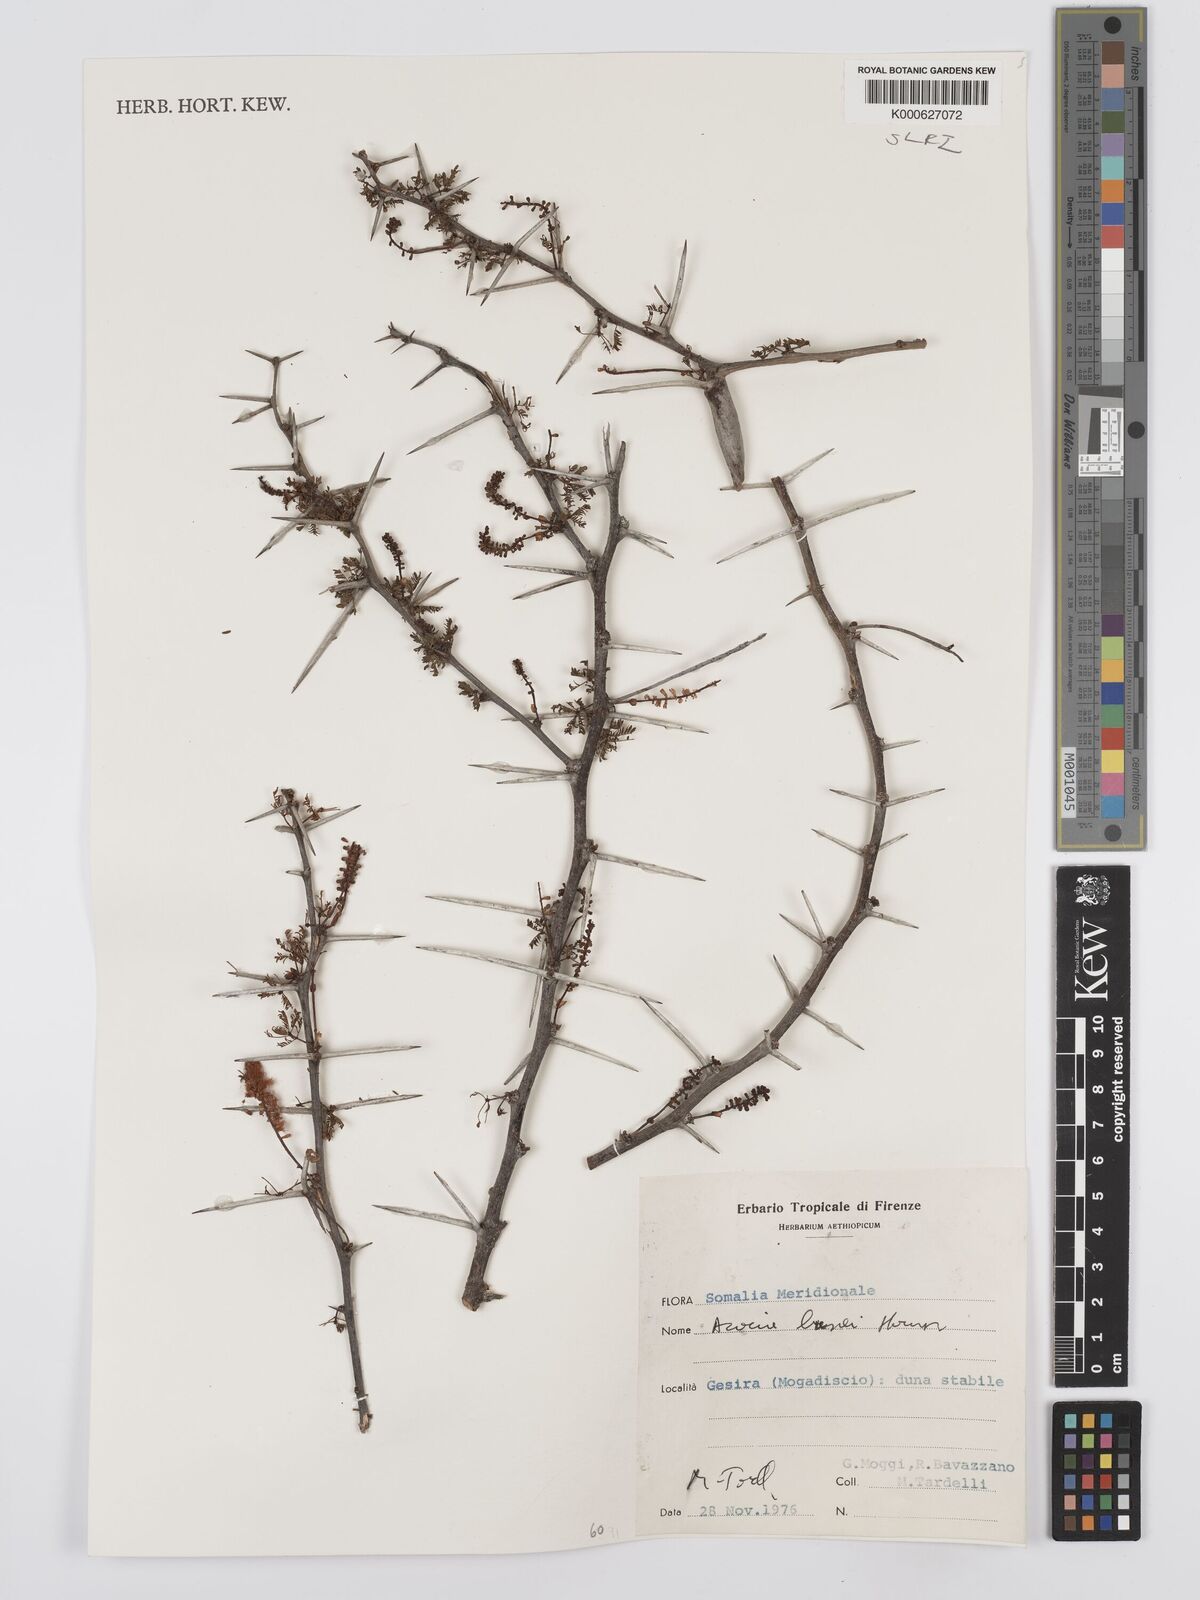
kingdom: Plantae
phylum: Tracheophyta
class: Magnoliopsida
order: Fabales
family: Fabaceae
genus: Vachellia
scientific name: Vachellia bussei
